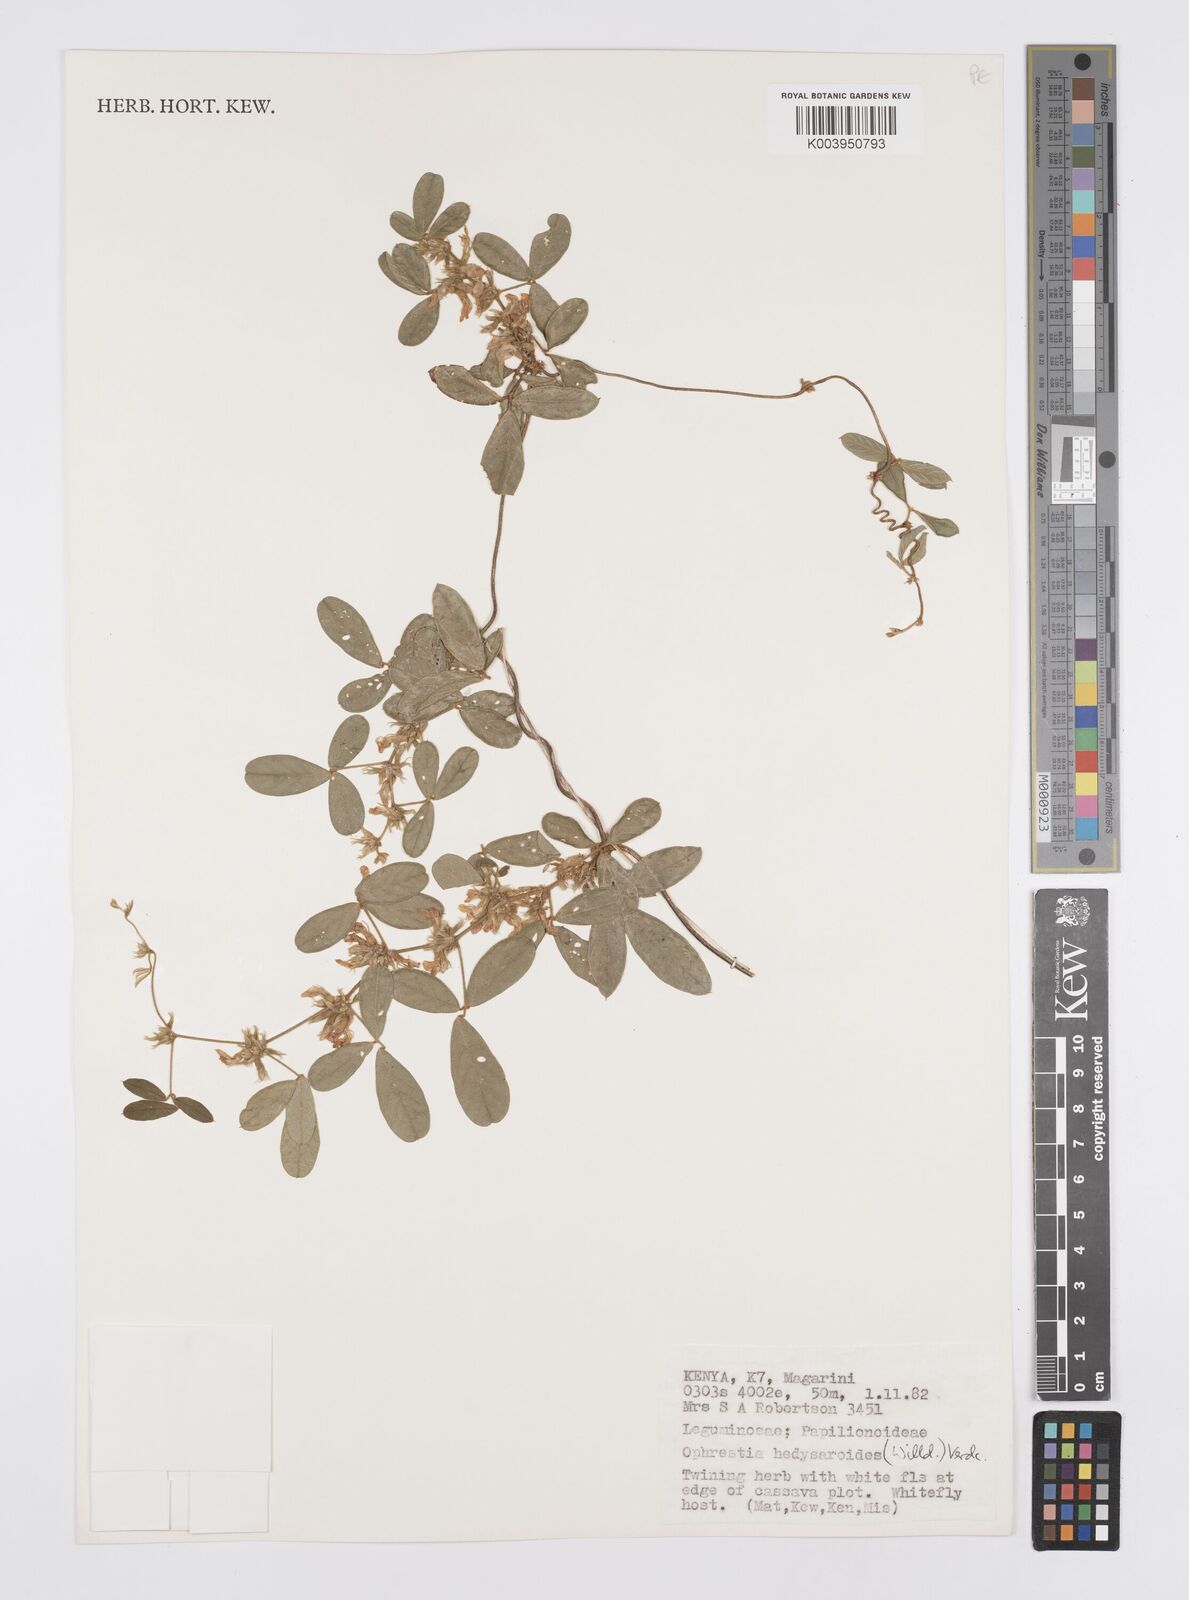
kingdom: Plantae
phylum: Tracheophyta
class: Magnoliopsida
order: Fabales
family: Fabaceae
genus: Ophrestia
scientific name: Ophrestia hedysaroides
